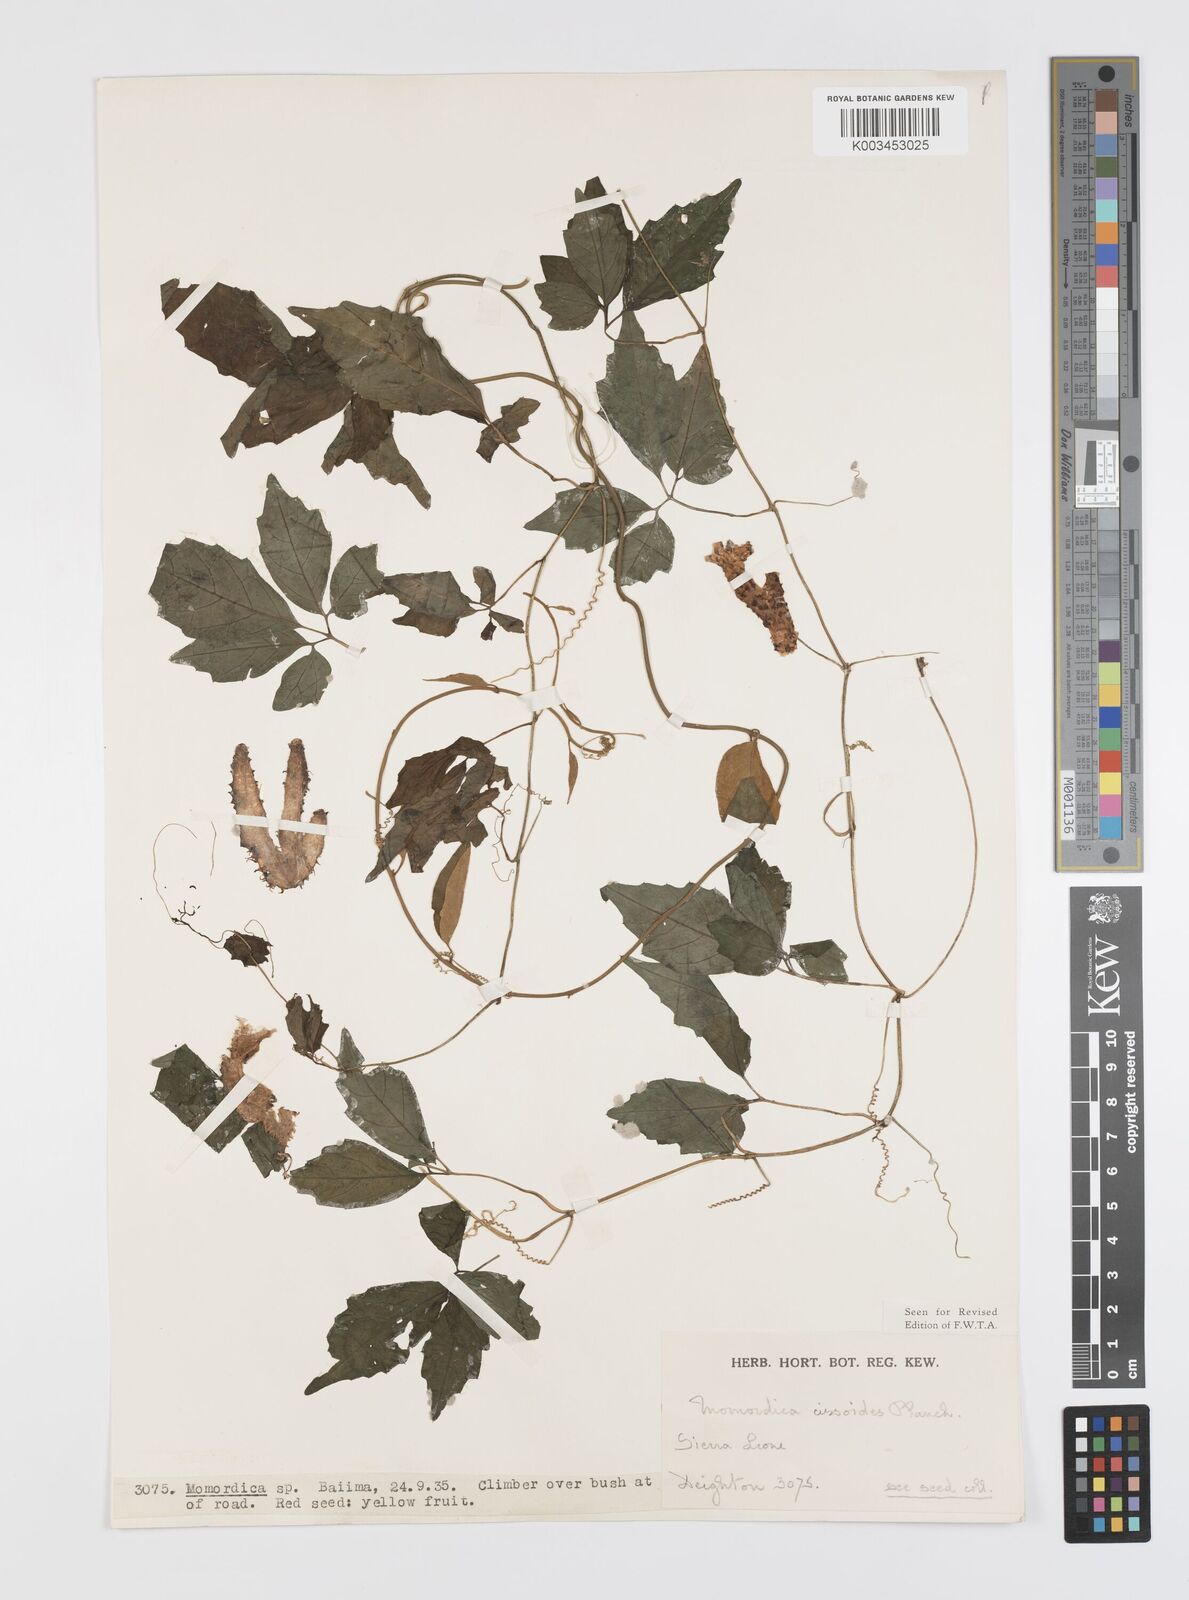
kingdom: Plantae
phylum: Tracheophyta
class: Magnoliopsida
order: Cucurbitales
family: Cucurbitaceae
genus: Momordica
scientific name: Momordica cissoides
